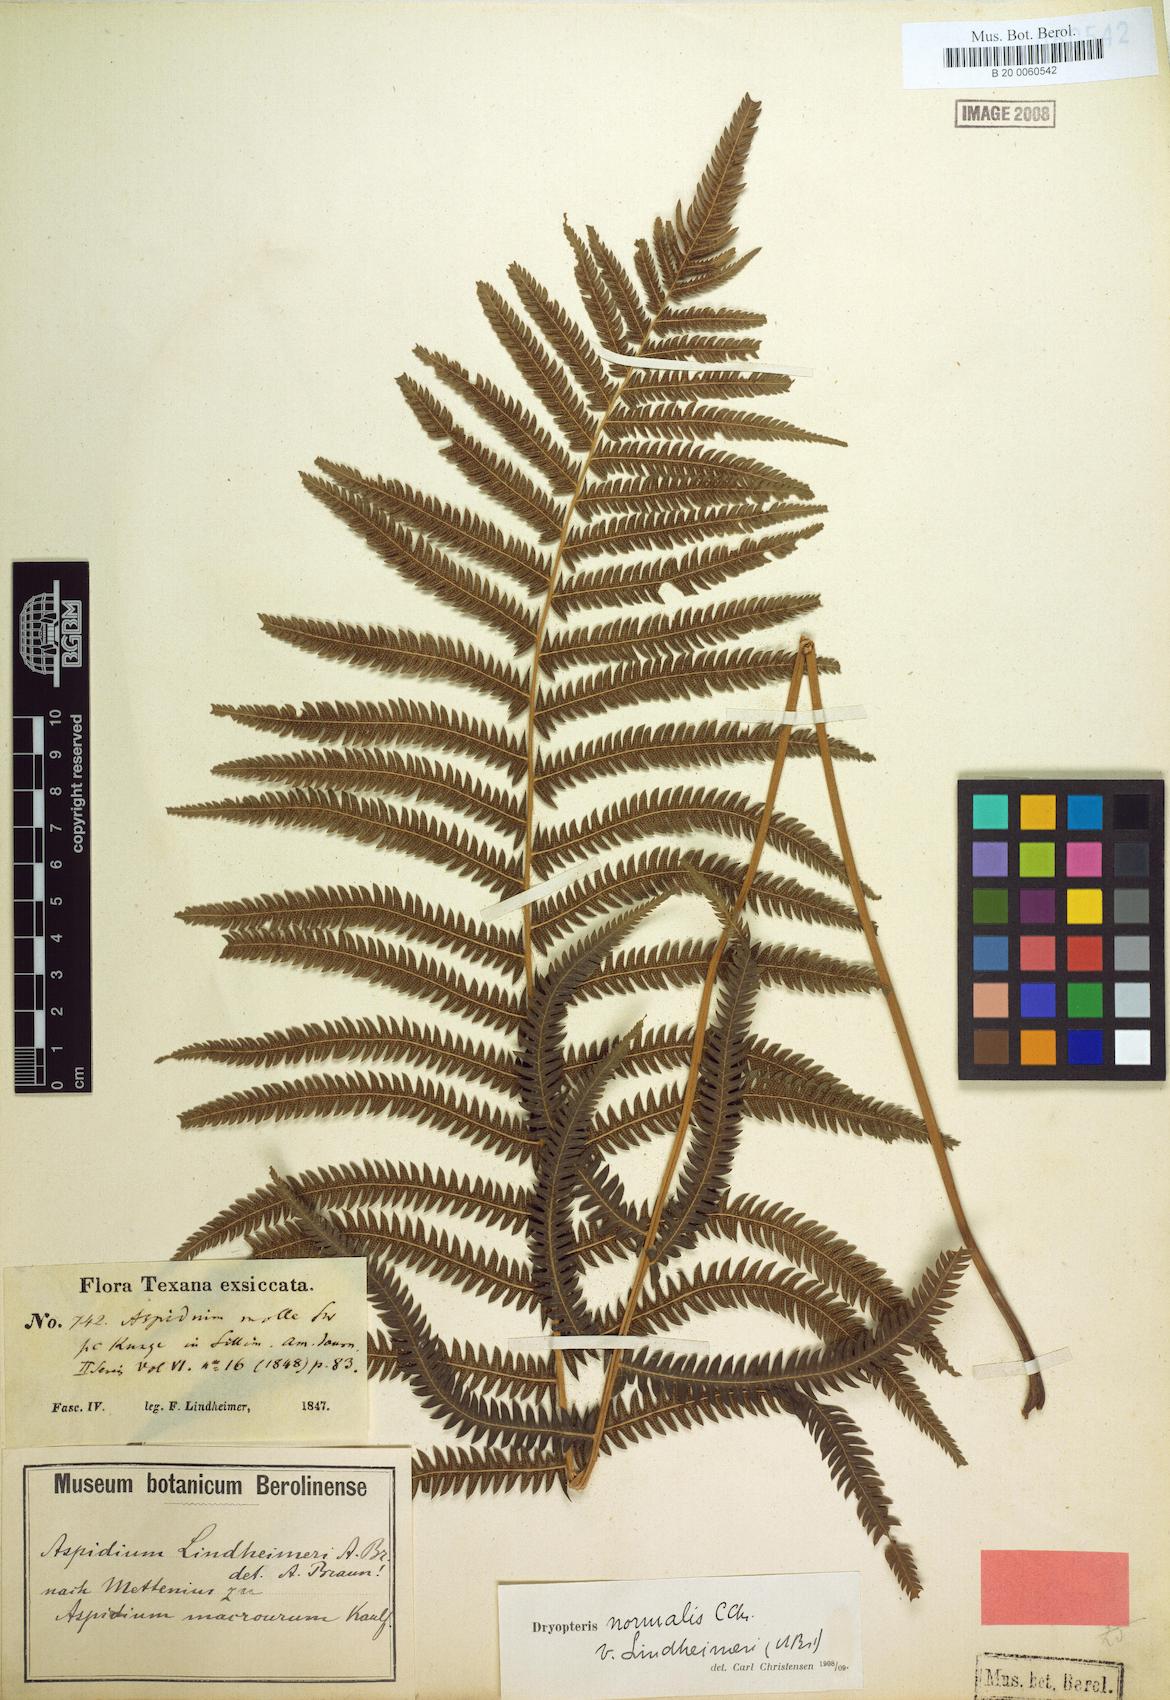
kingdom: Plantae
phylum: Tracheophyta
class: Polypodiopsida
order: Polypodiales
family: Thelypteridaceae
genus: Pelazoneuron
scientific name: Pelazoneuron ovatum
